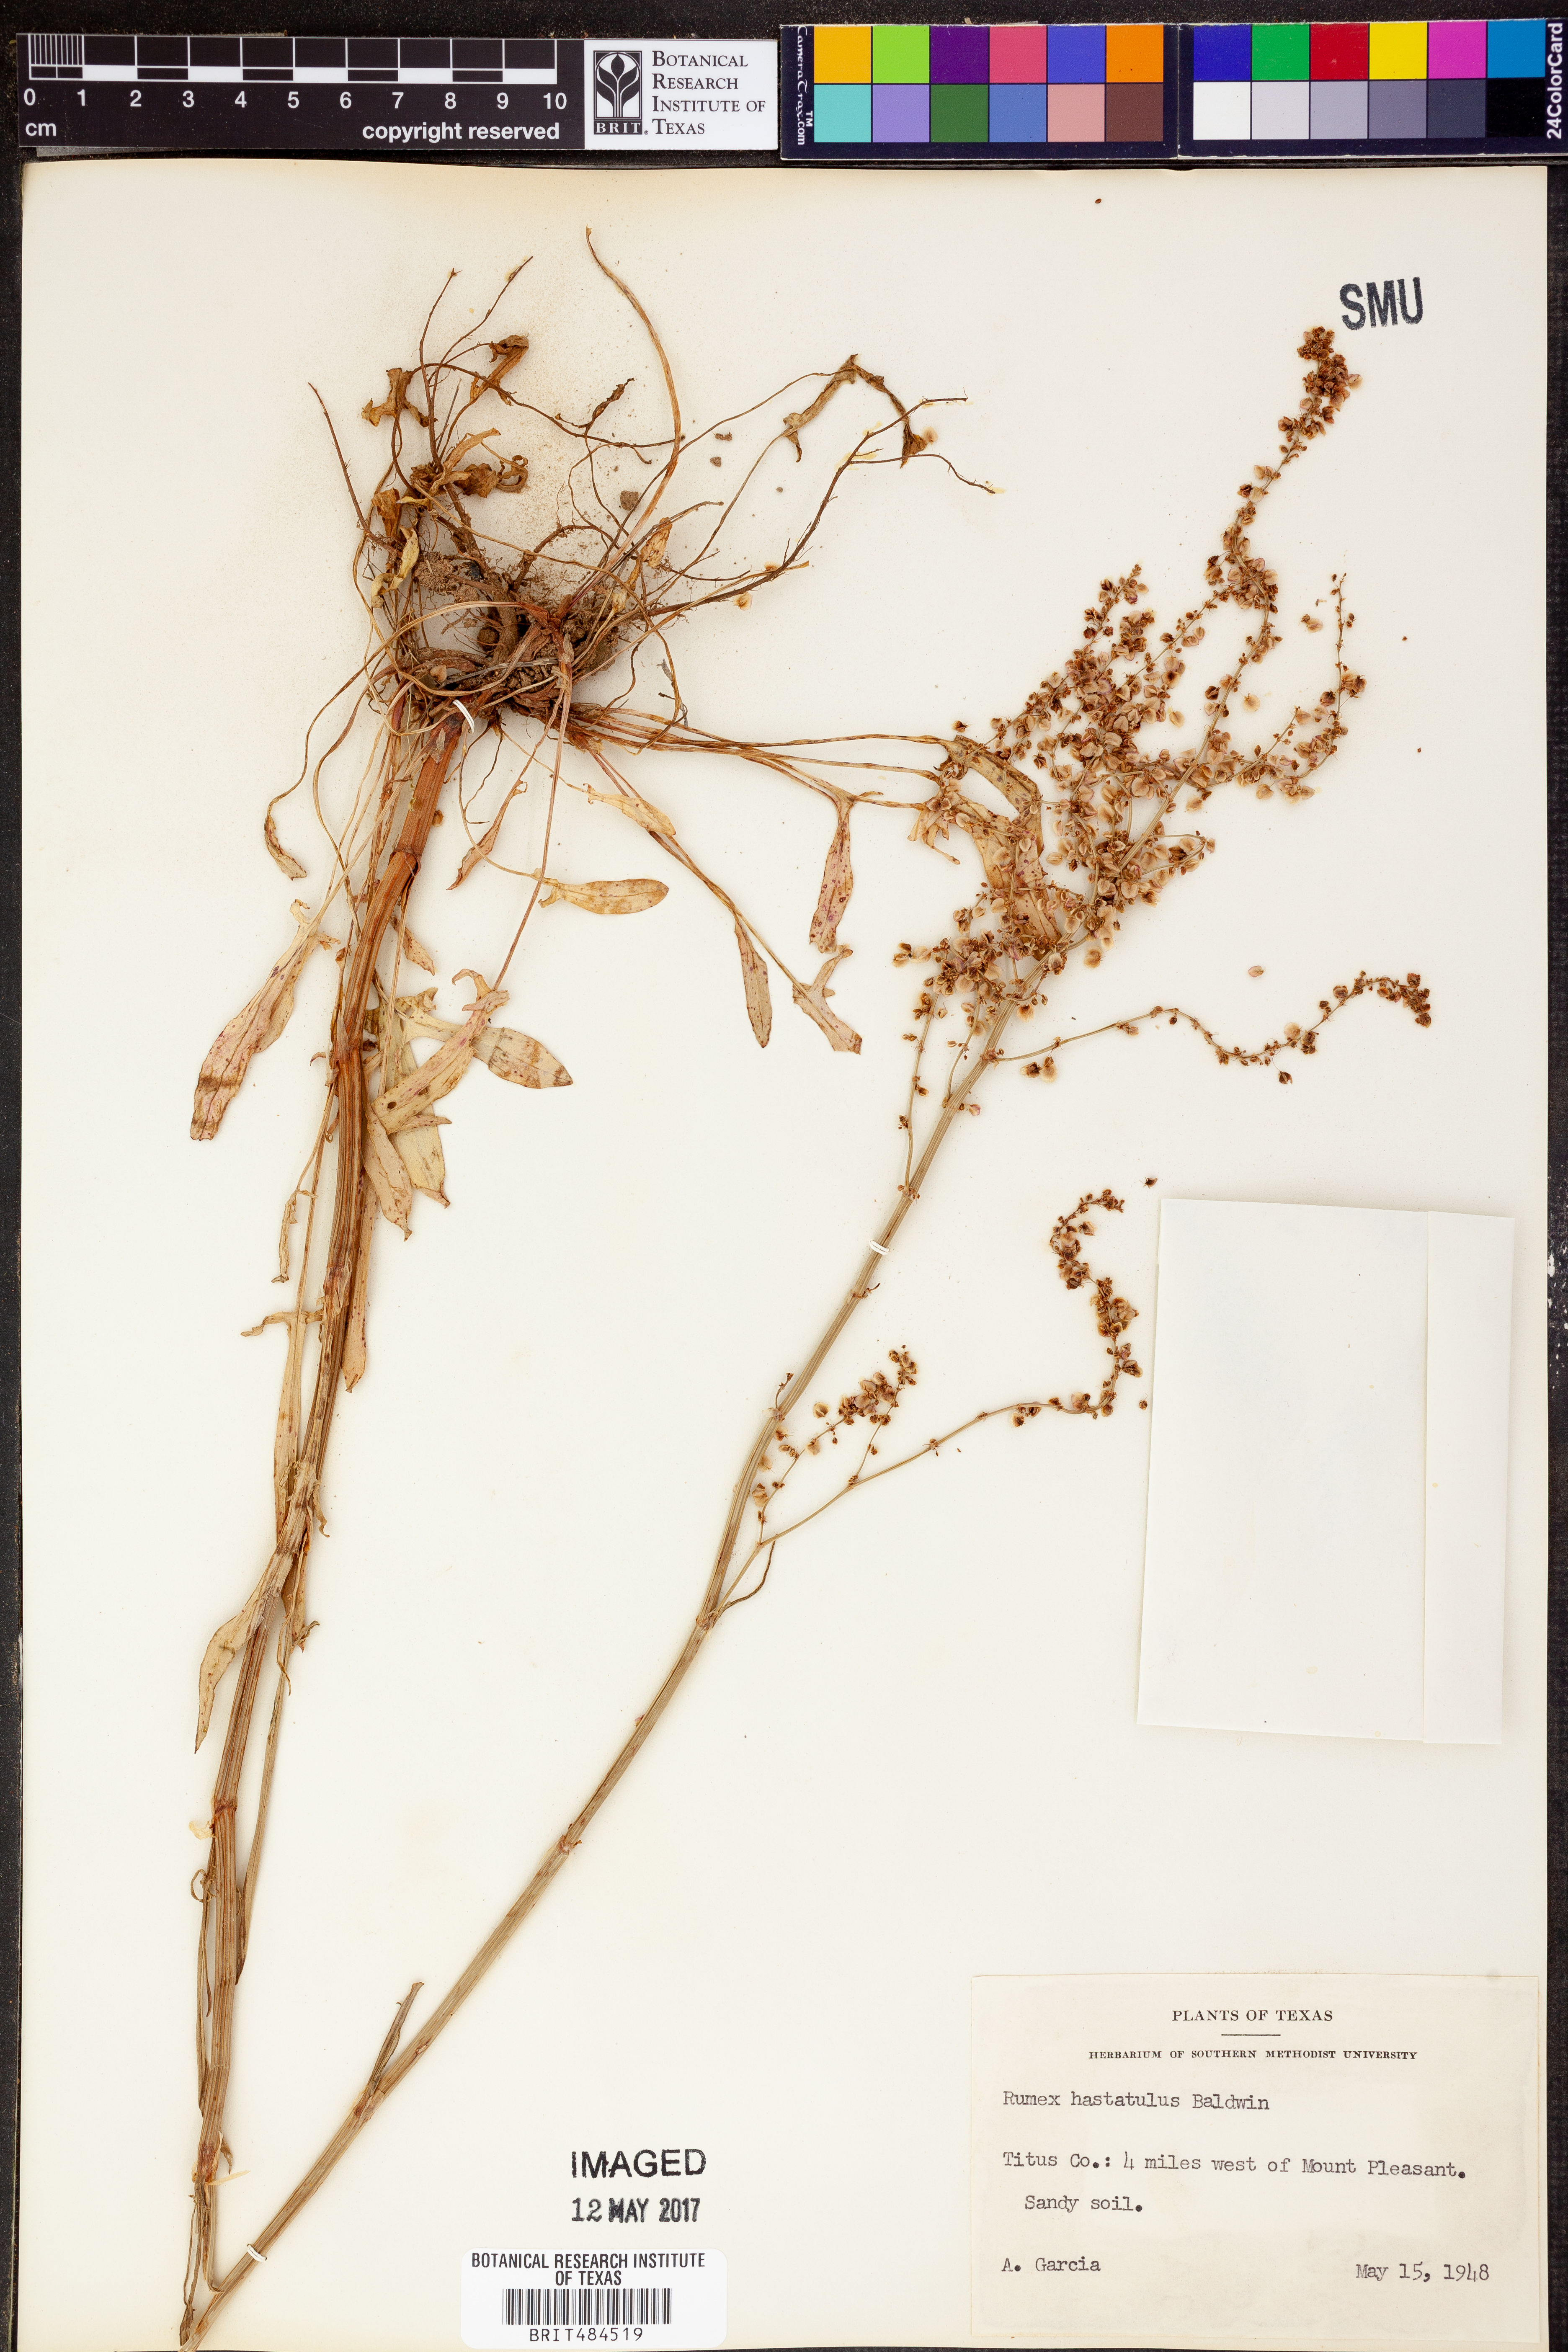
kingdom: Plantae
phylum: Tracheophyta
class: Magnoliopsida
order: Caryophyllales
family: Polygonaceae
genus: Rumex
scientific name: Rumex hastatulus
